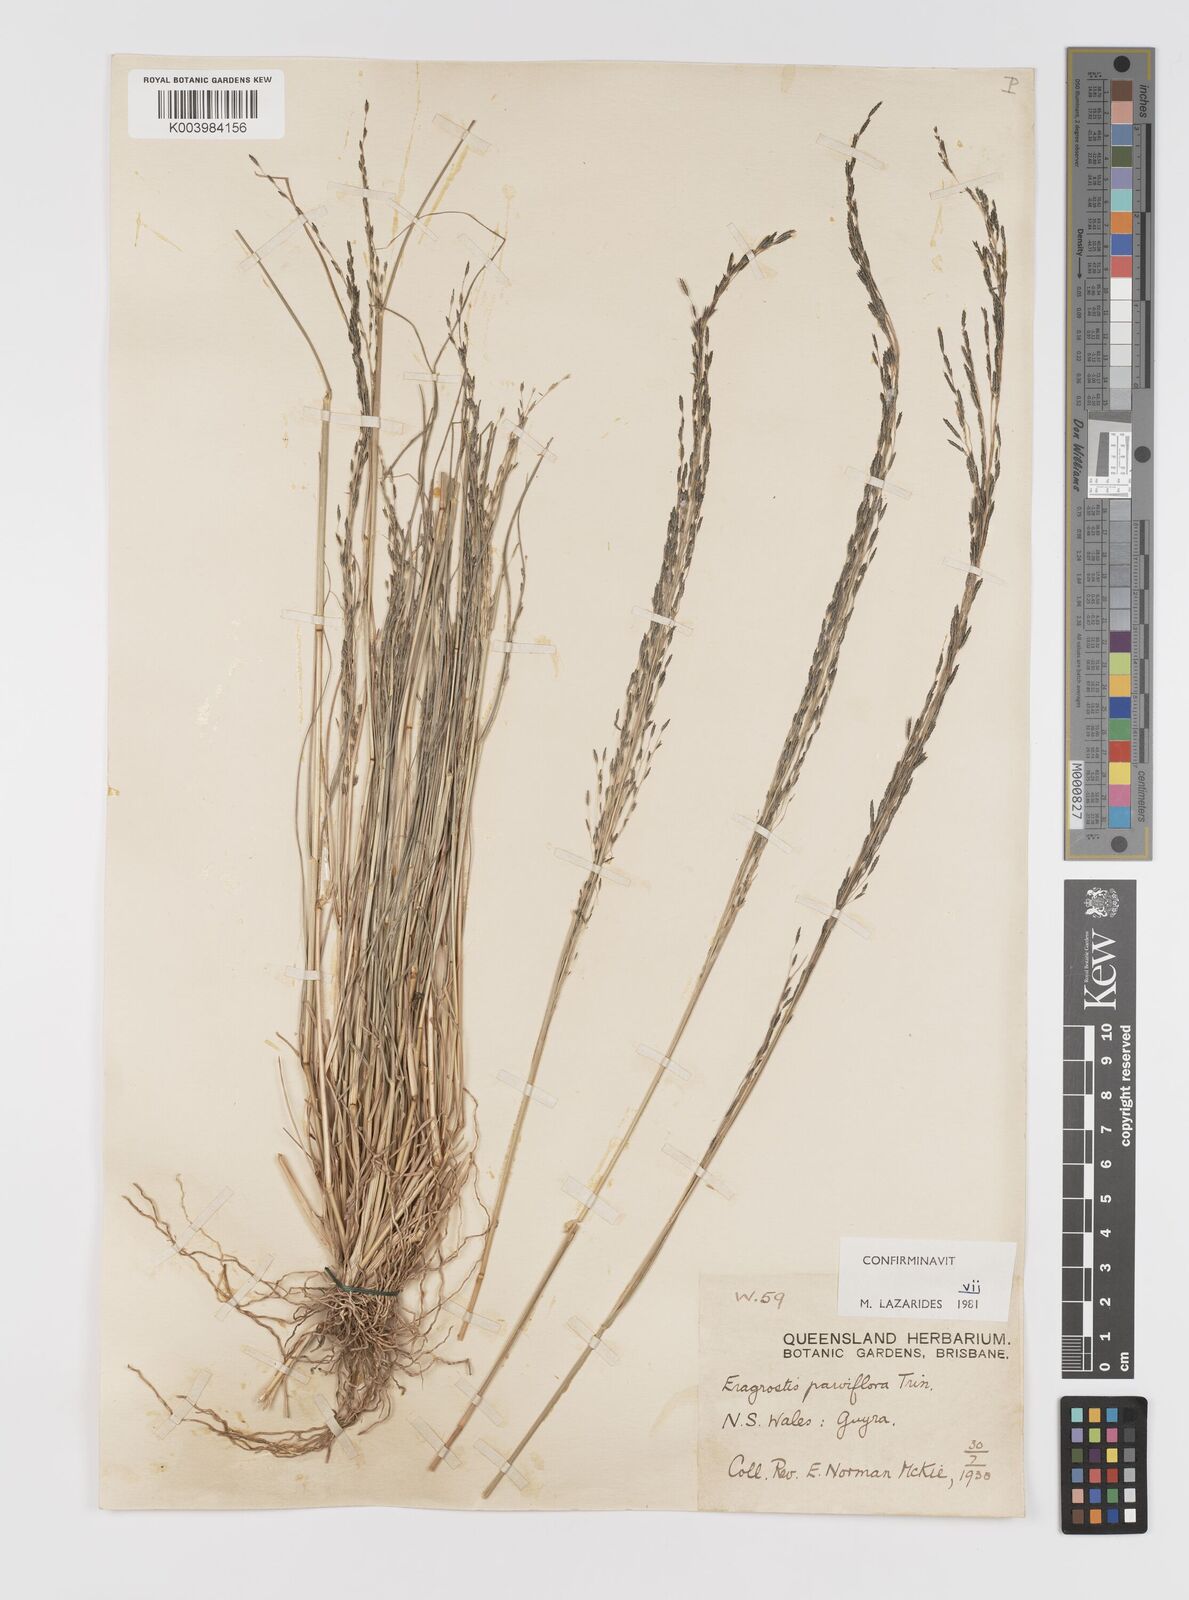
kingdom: Plantae
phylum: Tracheophyta
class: Liliopsida
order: Poales
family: Poaceae
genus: Eragrostis
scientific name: Eragrostis parviflora
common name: Weeping love-grass
